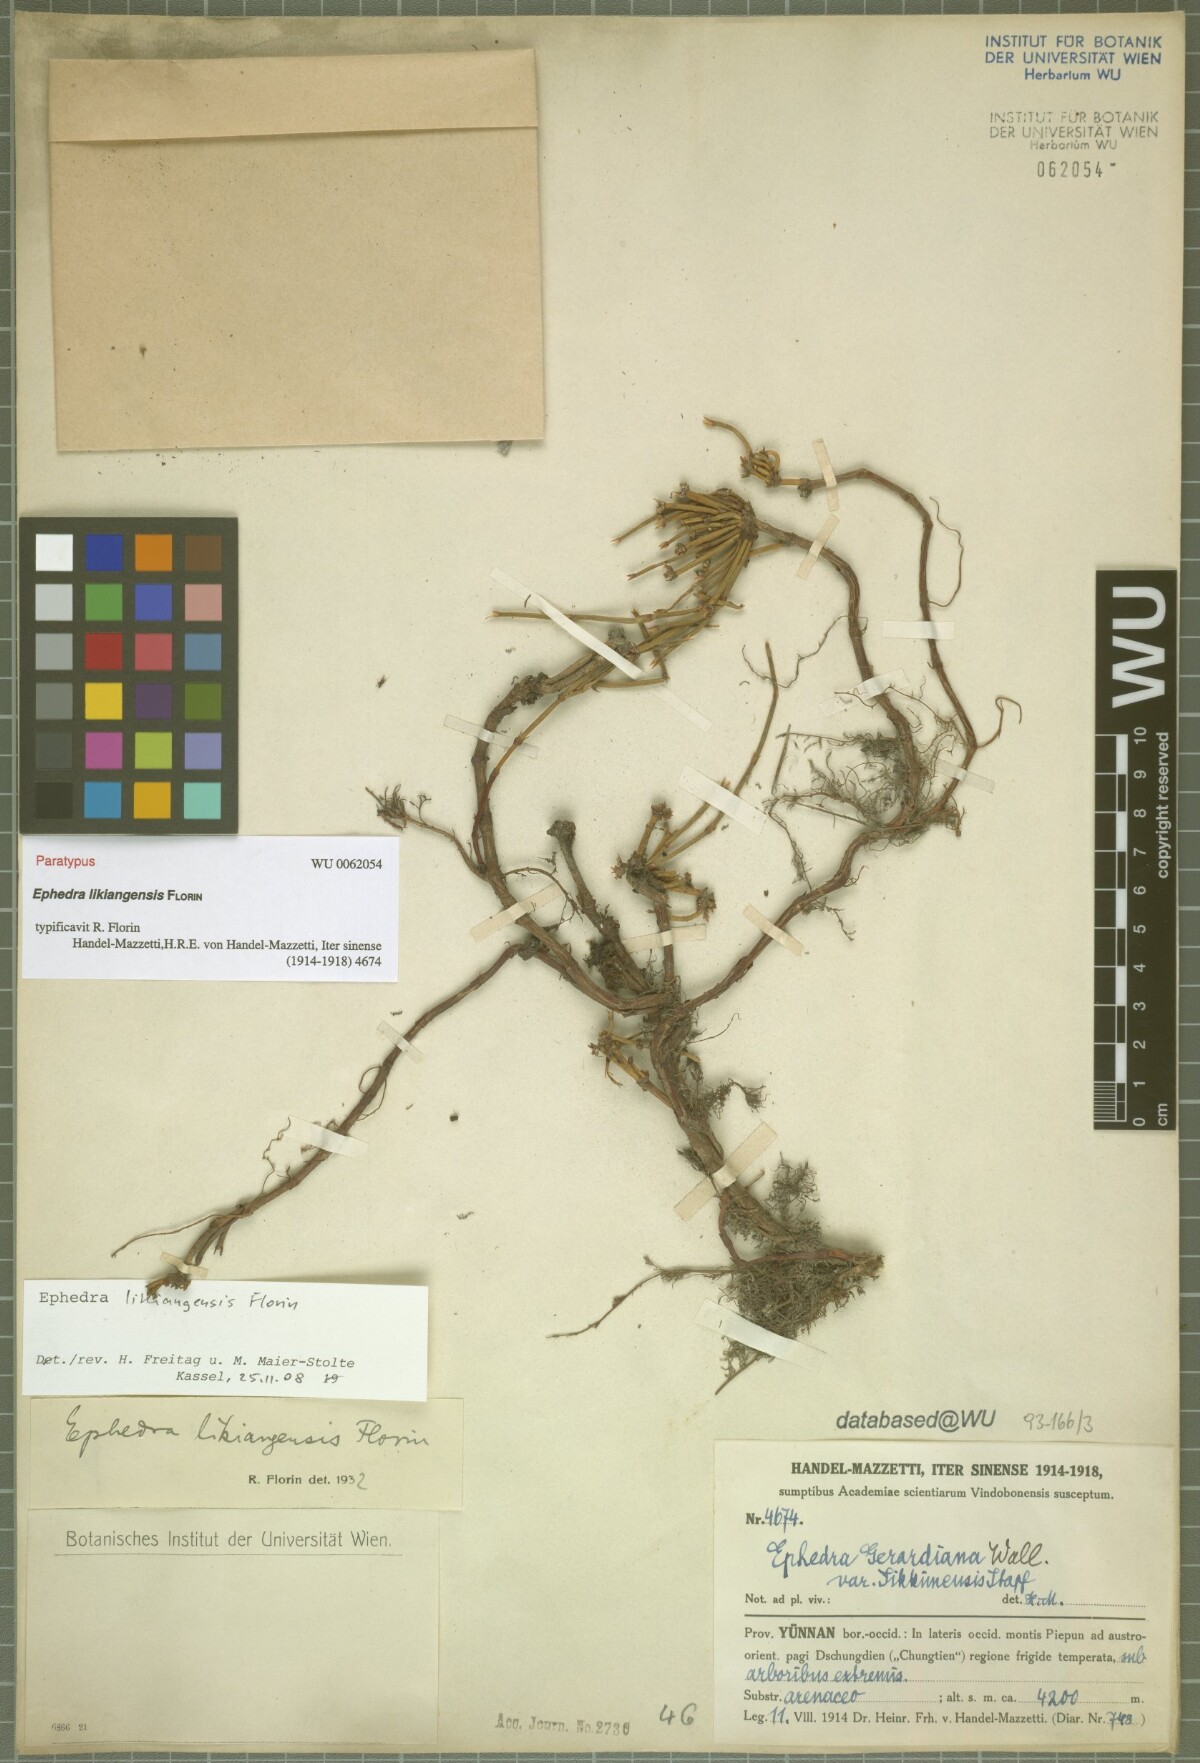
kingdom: Plantae
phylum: Tracheophyta
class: Gnetopsida
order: Ephedrales
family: Ephedraceae
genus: Ephedra
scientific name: Ephedra saxatilis
